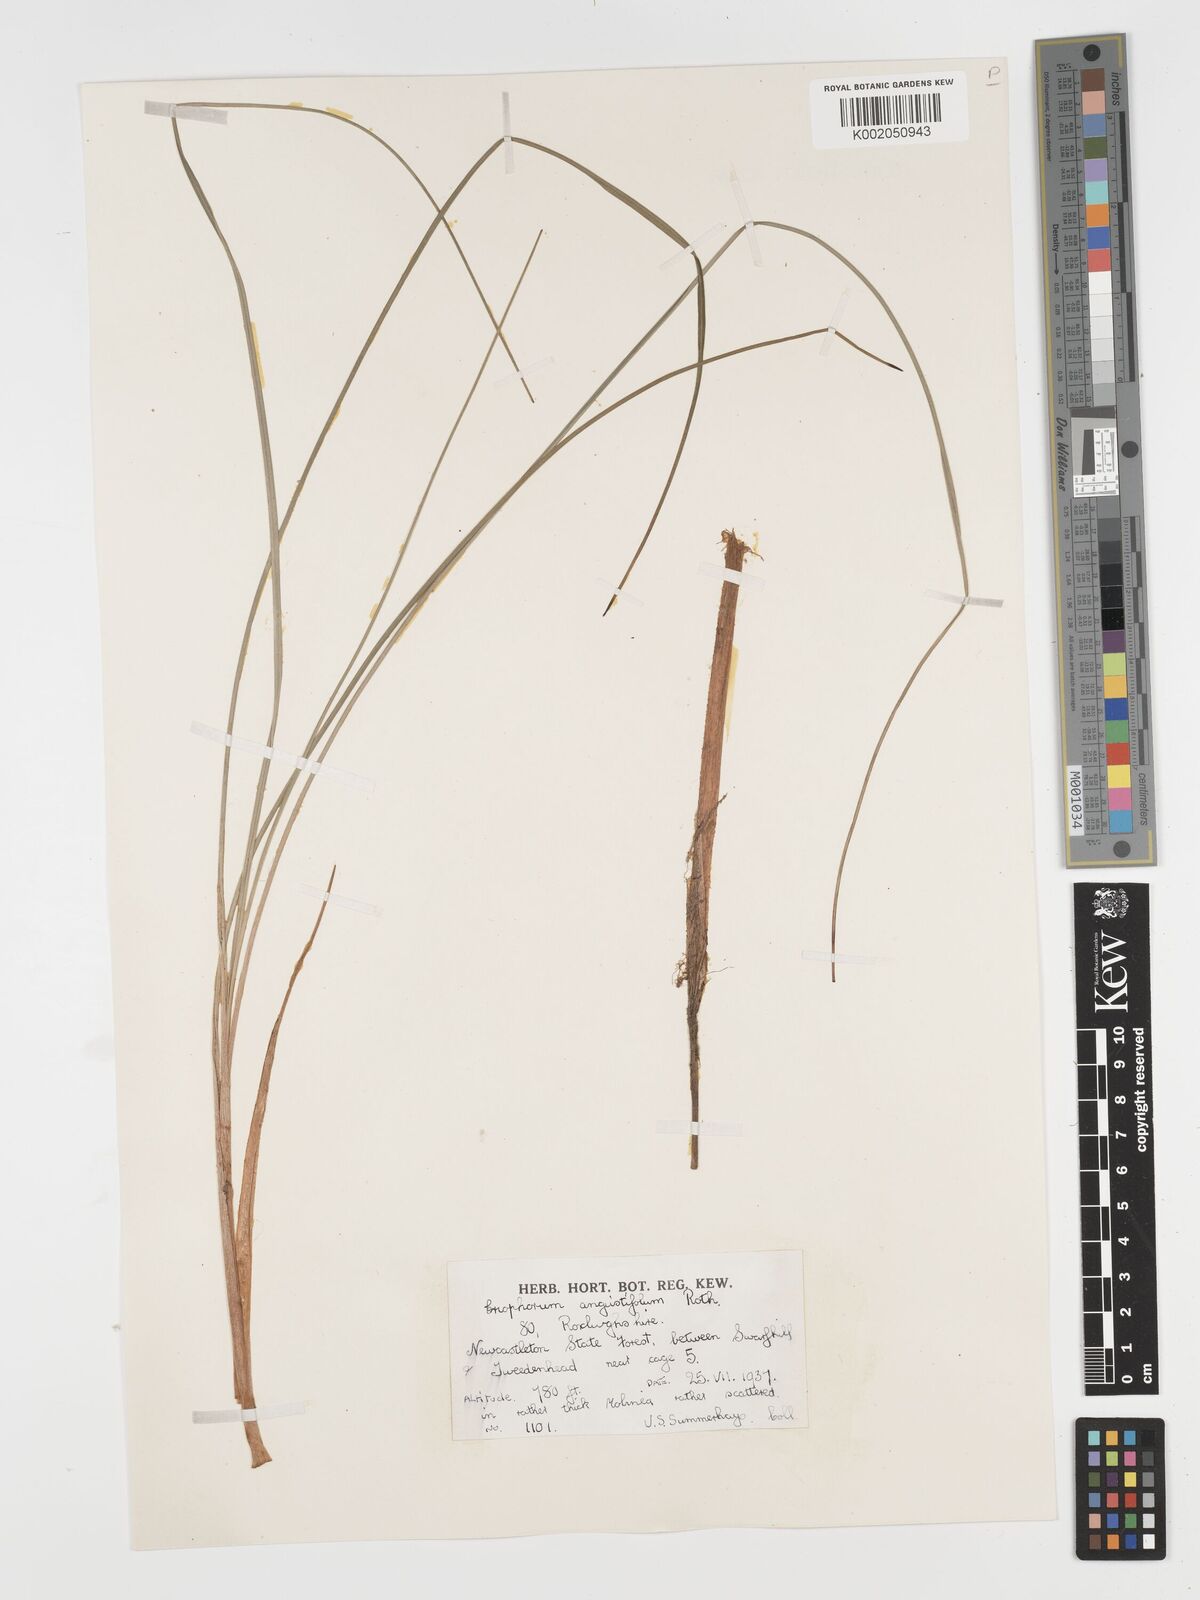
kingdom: Plantae
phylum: Tracheophyta
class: Liliopsida
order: Poales
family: Cyperaceae
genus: Eriophorum
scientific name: Eriophorum angustifolium
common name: Common cottongrass
